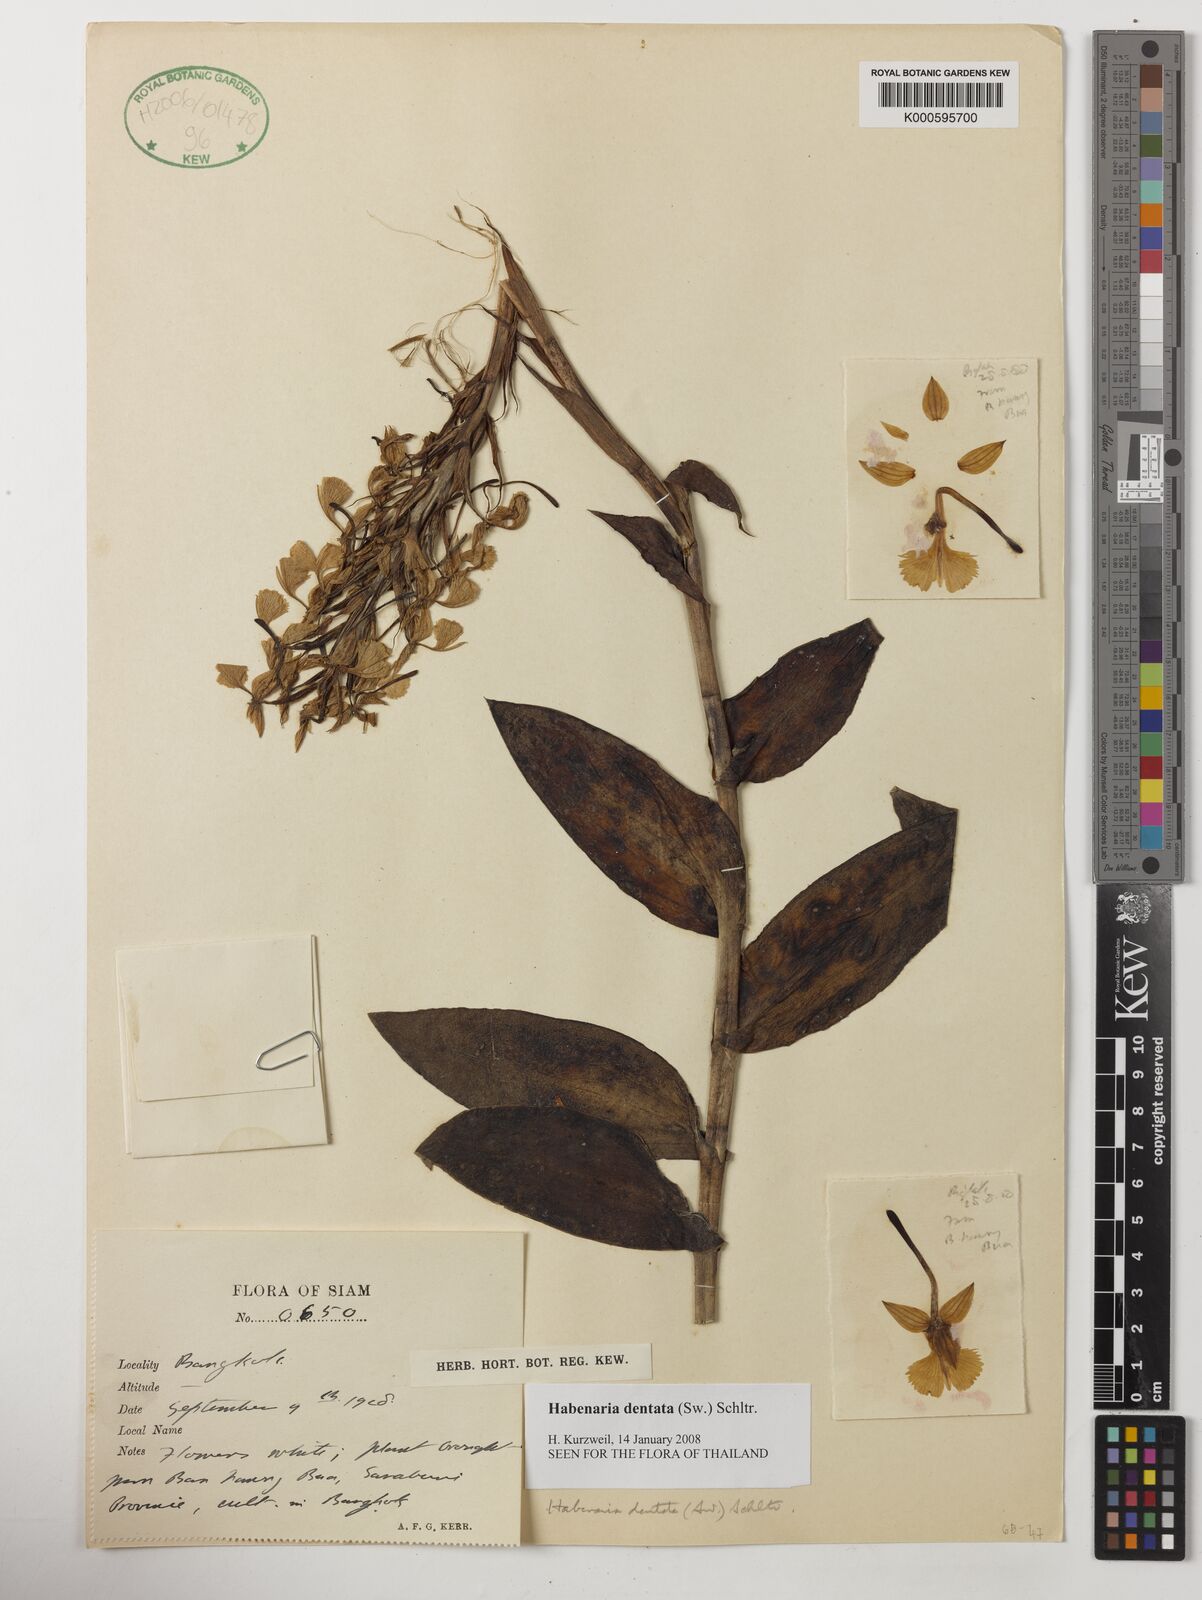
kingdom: Plantae
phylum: Tracheophyta
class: Liliopsida
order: Asparagales
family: Orchidaceae
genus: Habenaria
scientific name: Habenaria dentata
